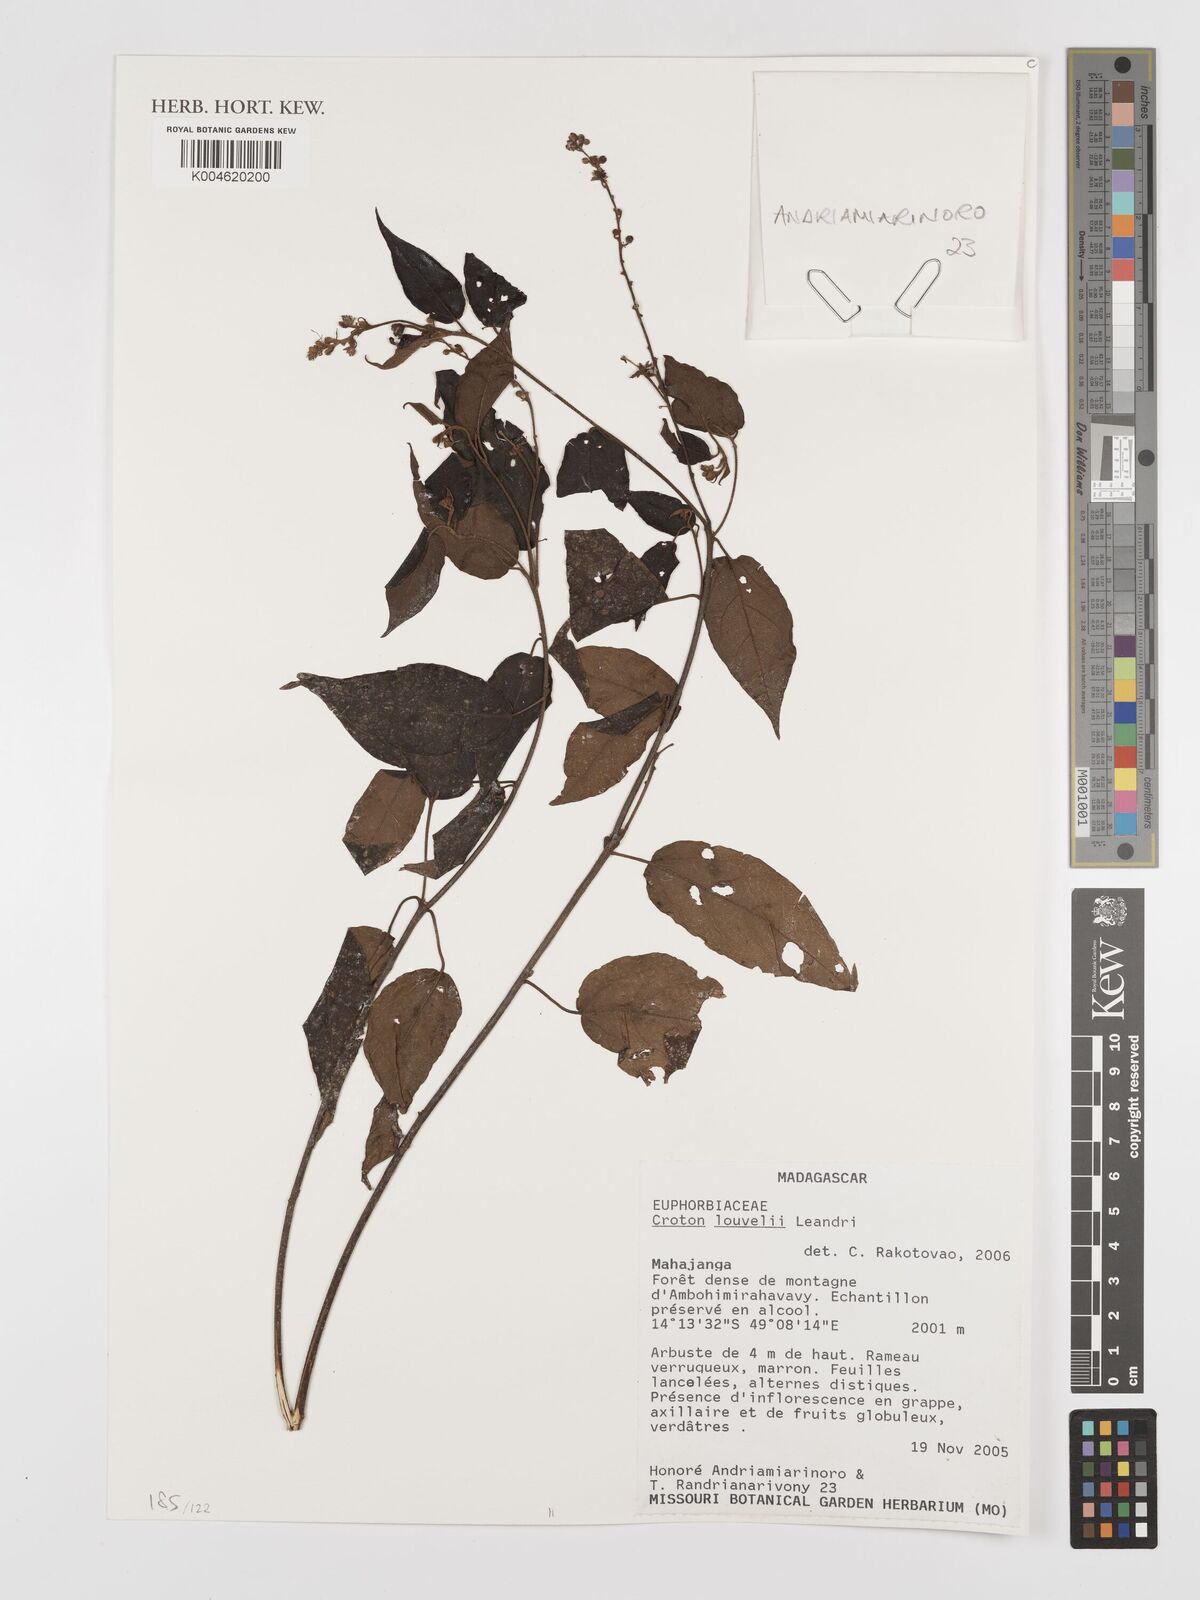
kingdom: Plantae
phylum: Tracheophyta
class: Magnoliopsida
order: Malpighiales
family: Euphorbiaceae
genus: Croton
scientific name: Croton chapelieri
